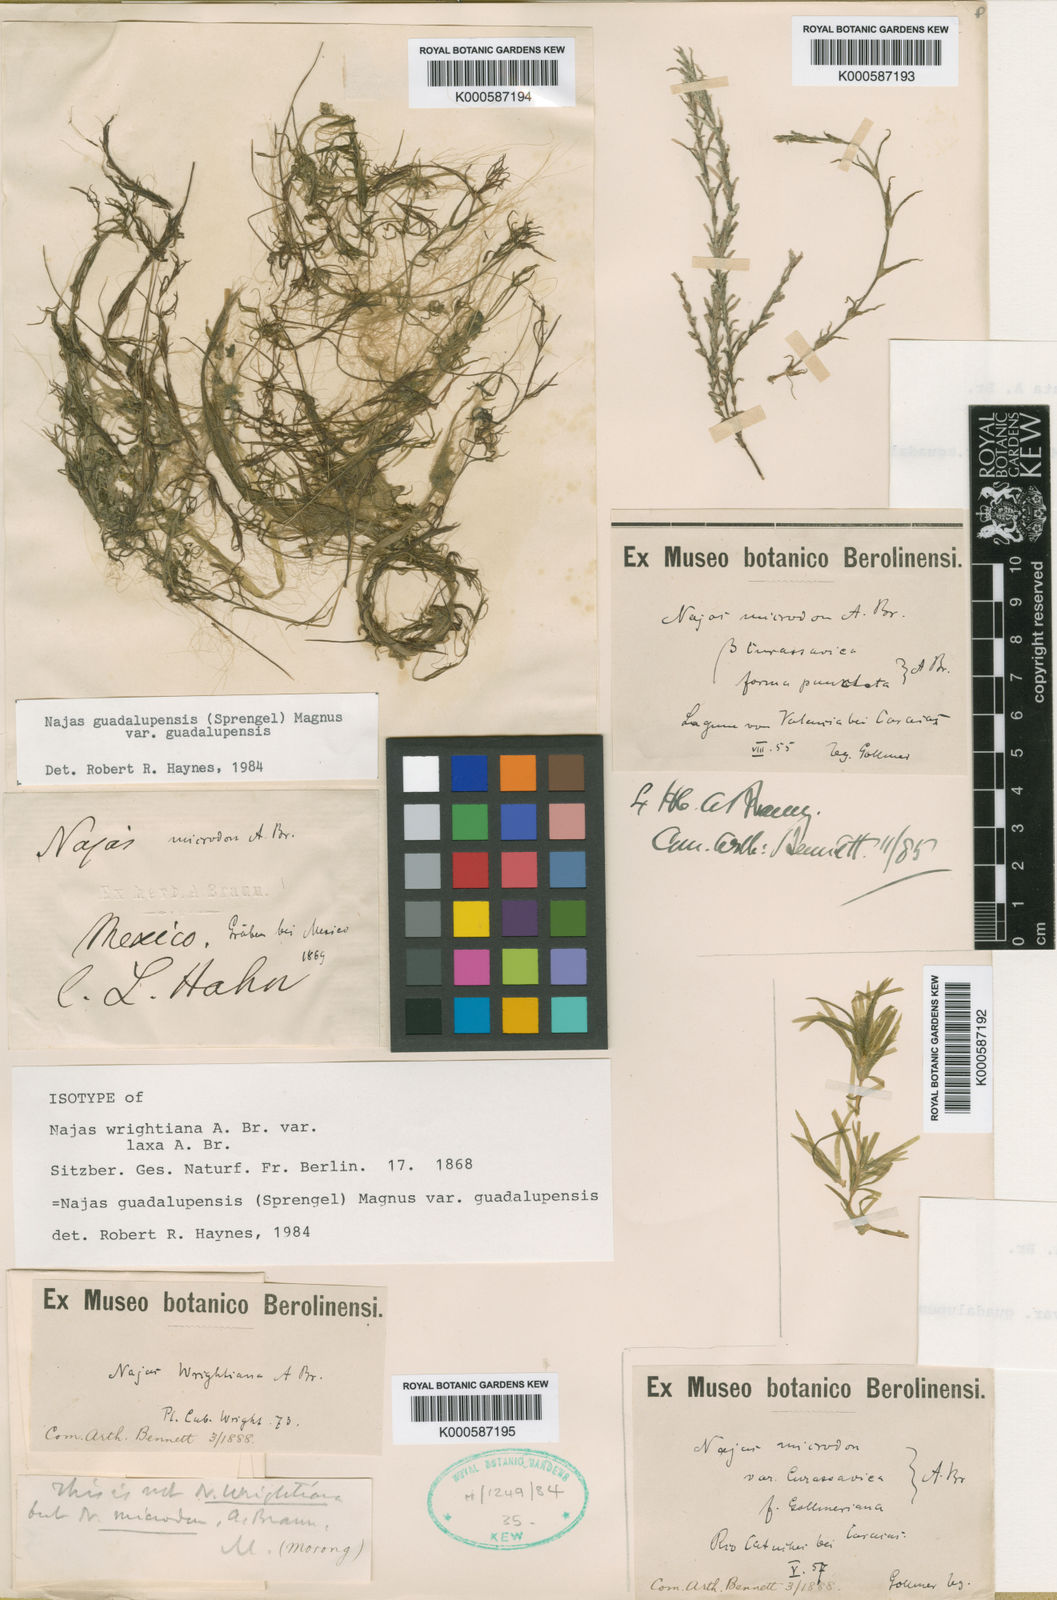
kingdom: Plantae
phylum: Tracheophyta
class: Liliopsida
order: Alismatales
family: Hydrocharitaceae
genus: Najas
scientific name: Najas guadalupensis
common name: Southern naiad
